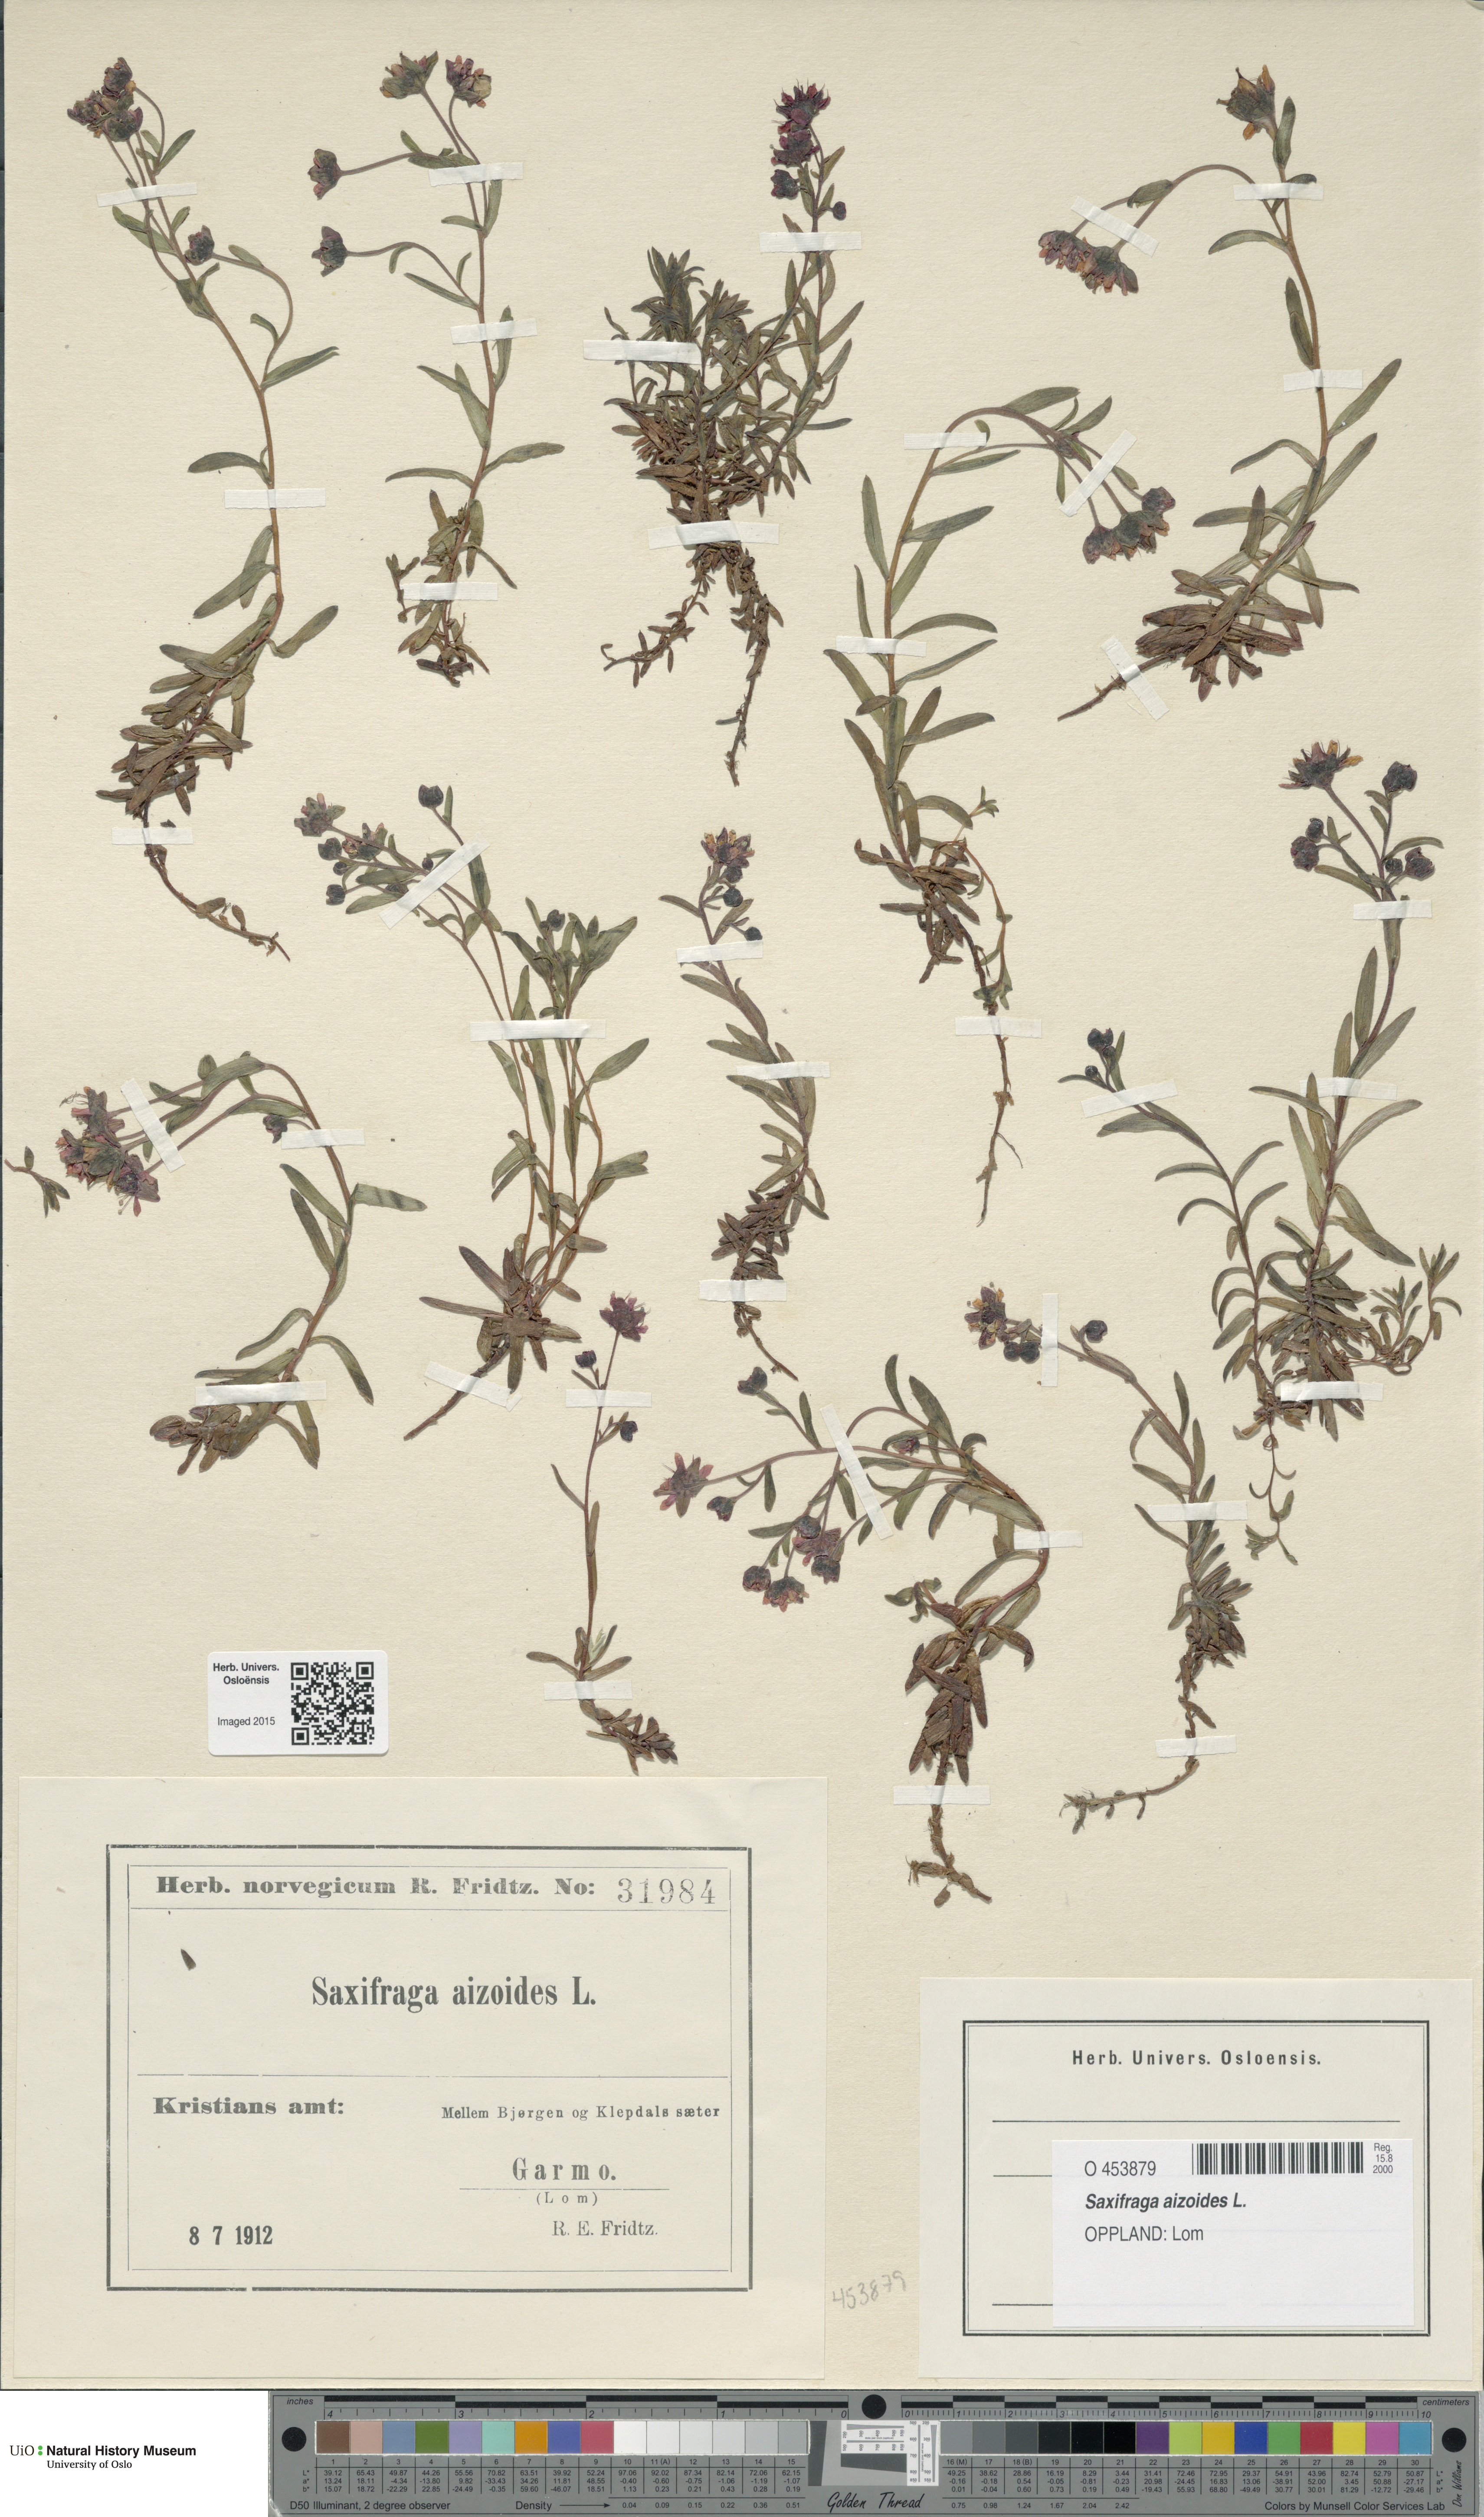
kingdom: Plantae
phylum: Tracheophyta
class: Magnoliopsida
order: Saxifragales
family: Saxifragaceae
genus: Saxifraga
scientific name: Saxifraga aizoides
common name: Yellow mountain saxifrage
